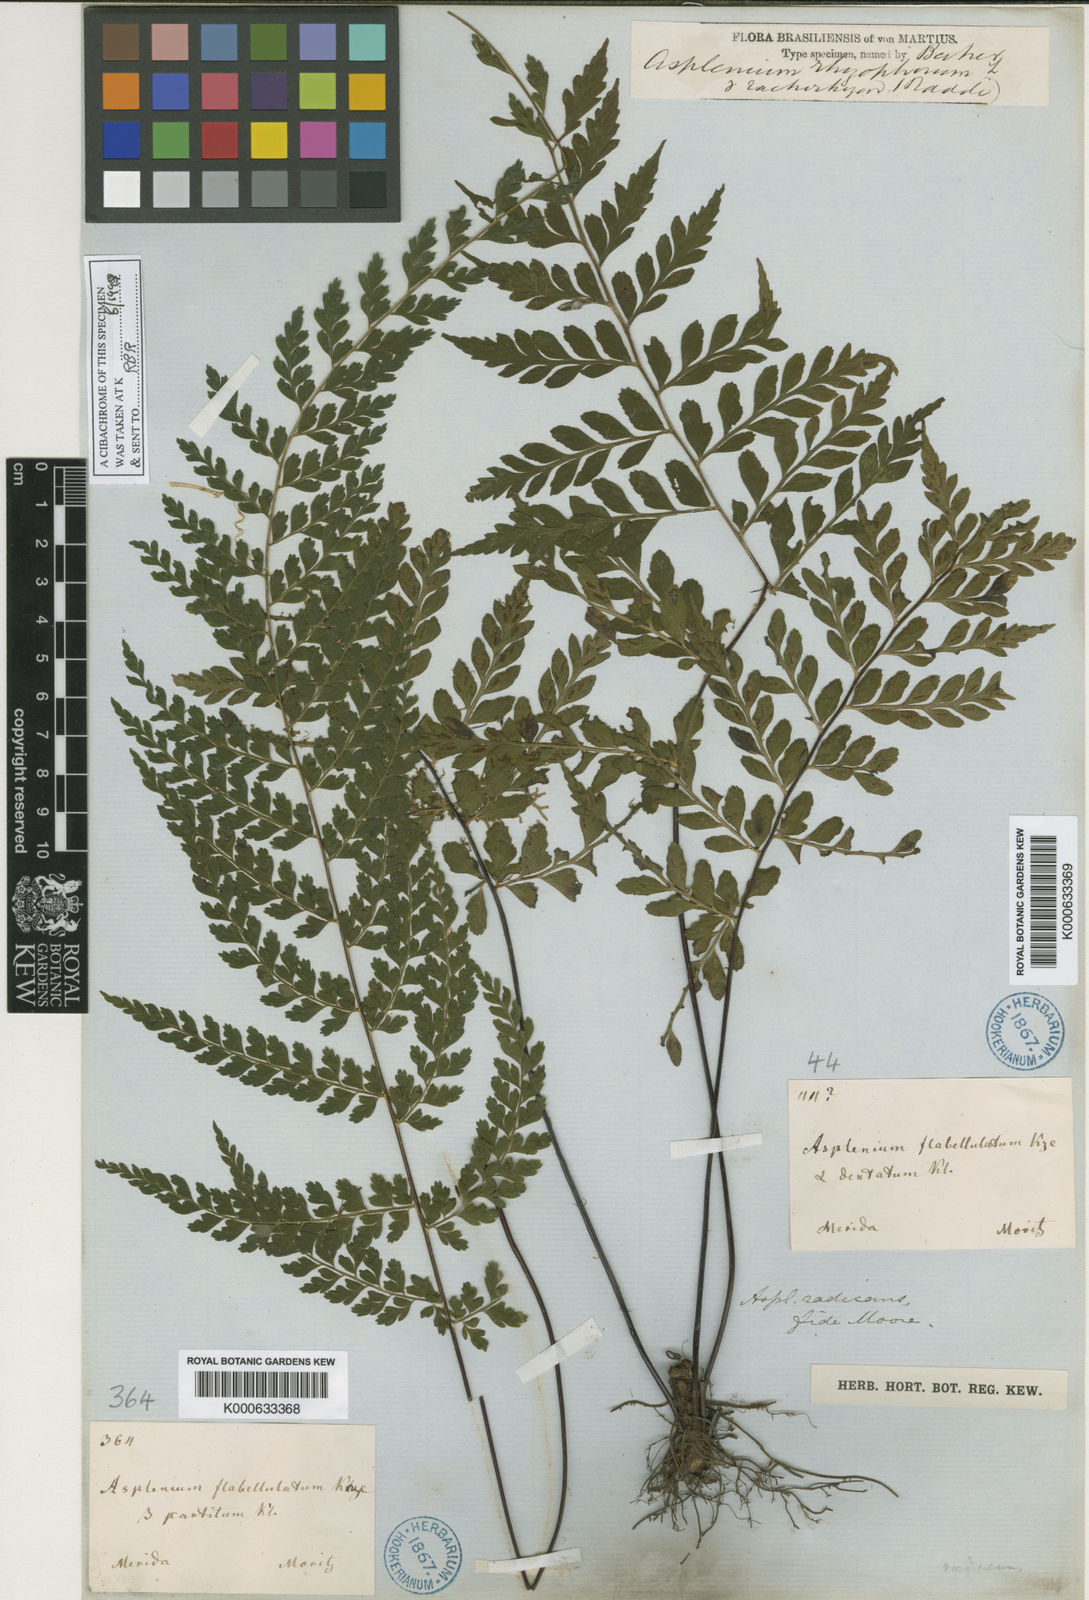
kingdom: Plantae
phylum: Tracheophyta
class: Polypodiopsida
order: Polypodiales
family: Aspleniaceae
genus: Asplenium
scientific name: Asplenium radicans
